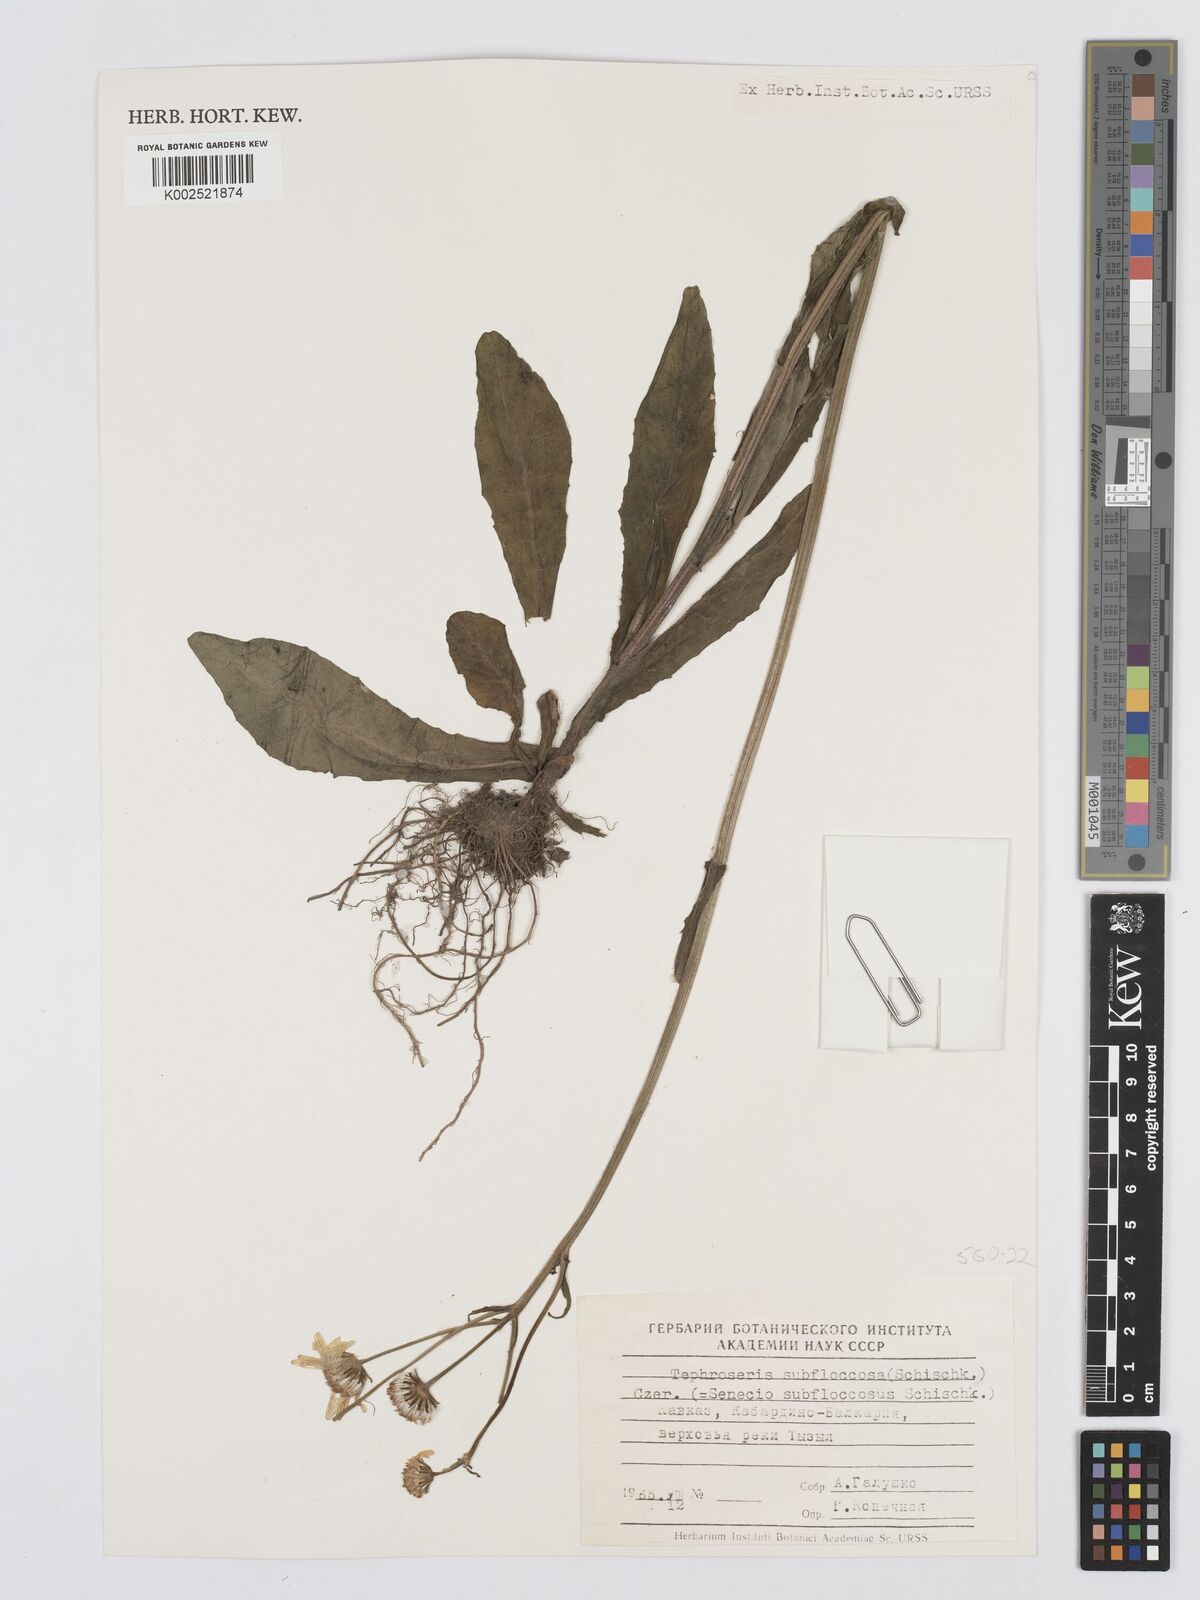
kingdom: Plantae
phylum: Tracheophyta
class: Magnoliopsida
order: Asterales
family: Asteraceae
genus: Tephroseris
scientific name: Tephroseris cladobotrys
